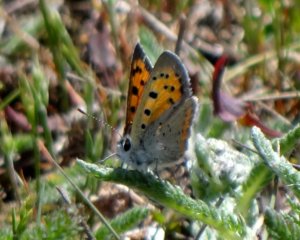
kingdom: Animalia
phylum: Arthropoda
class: Insecta
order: Lepidoptera
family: Lycaenidae
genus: Lycaena
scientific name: Lycaena phlaeas
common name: American Copper
